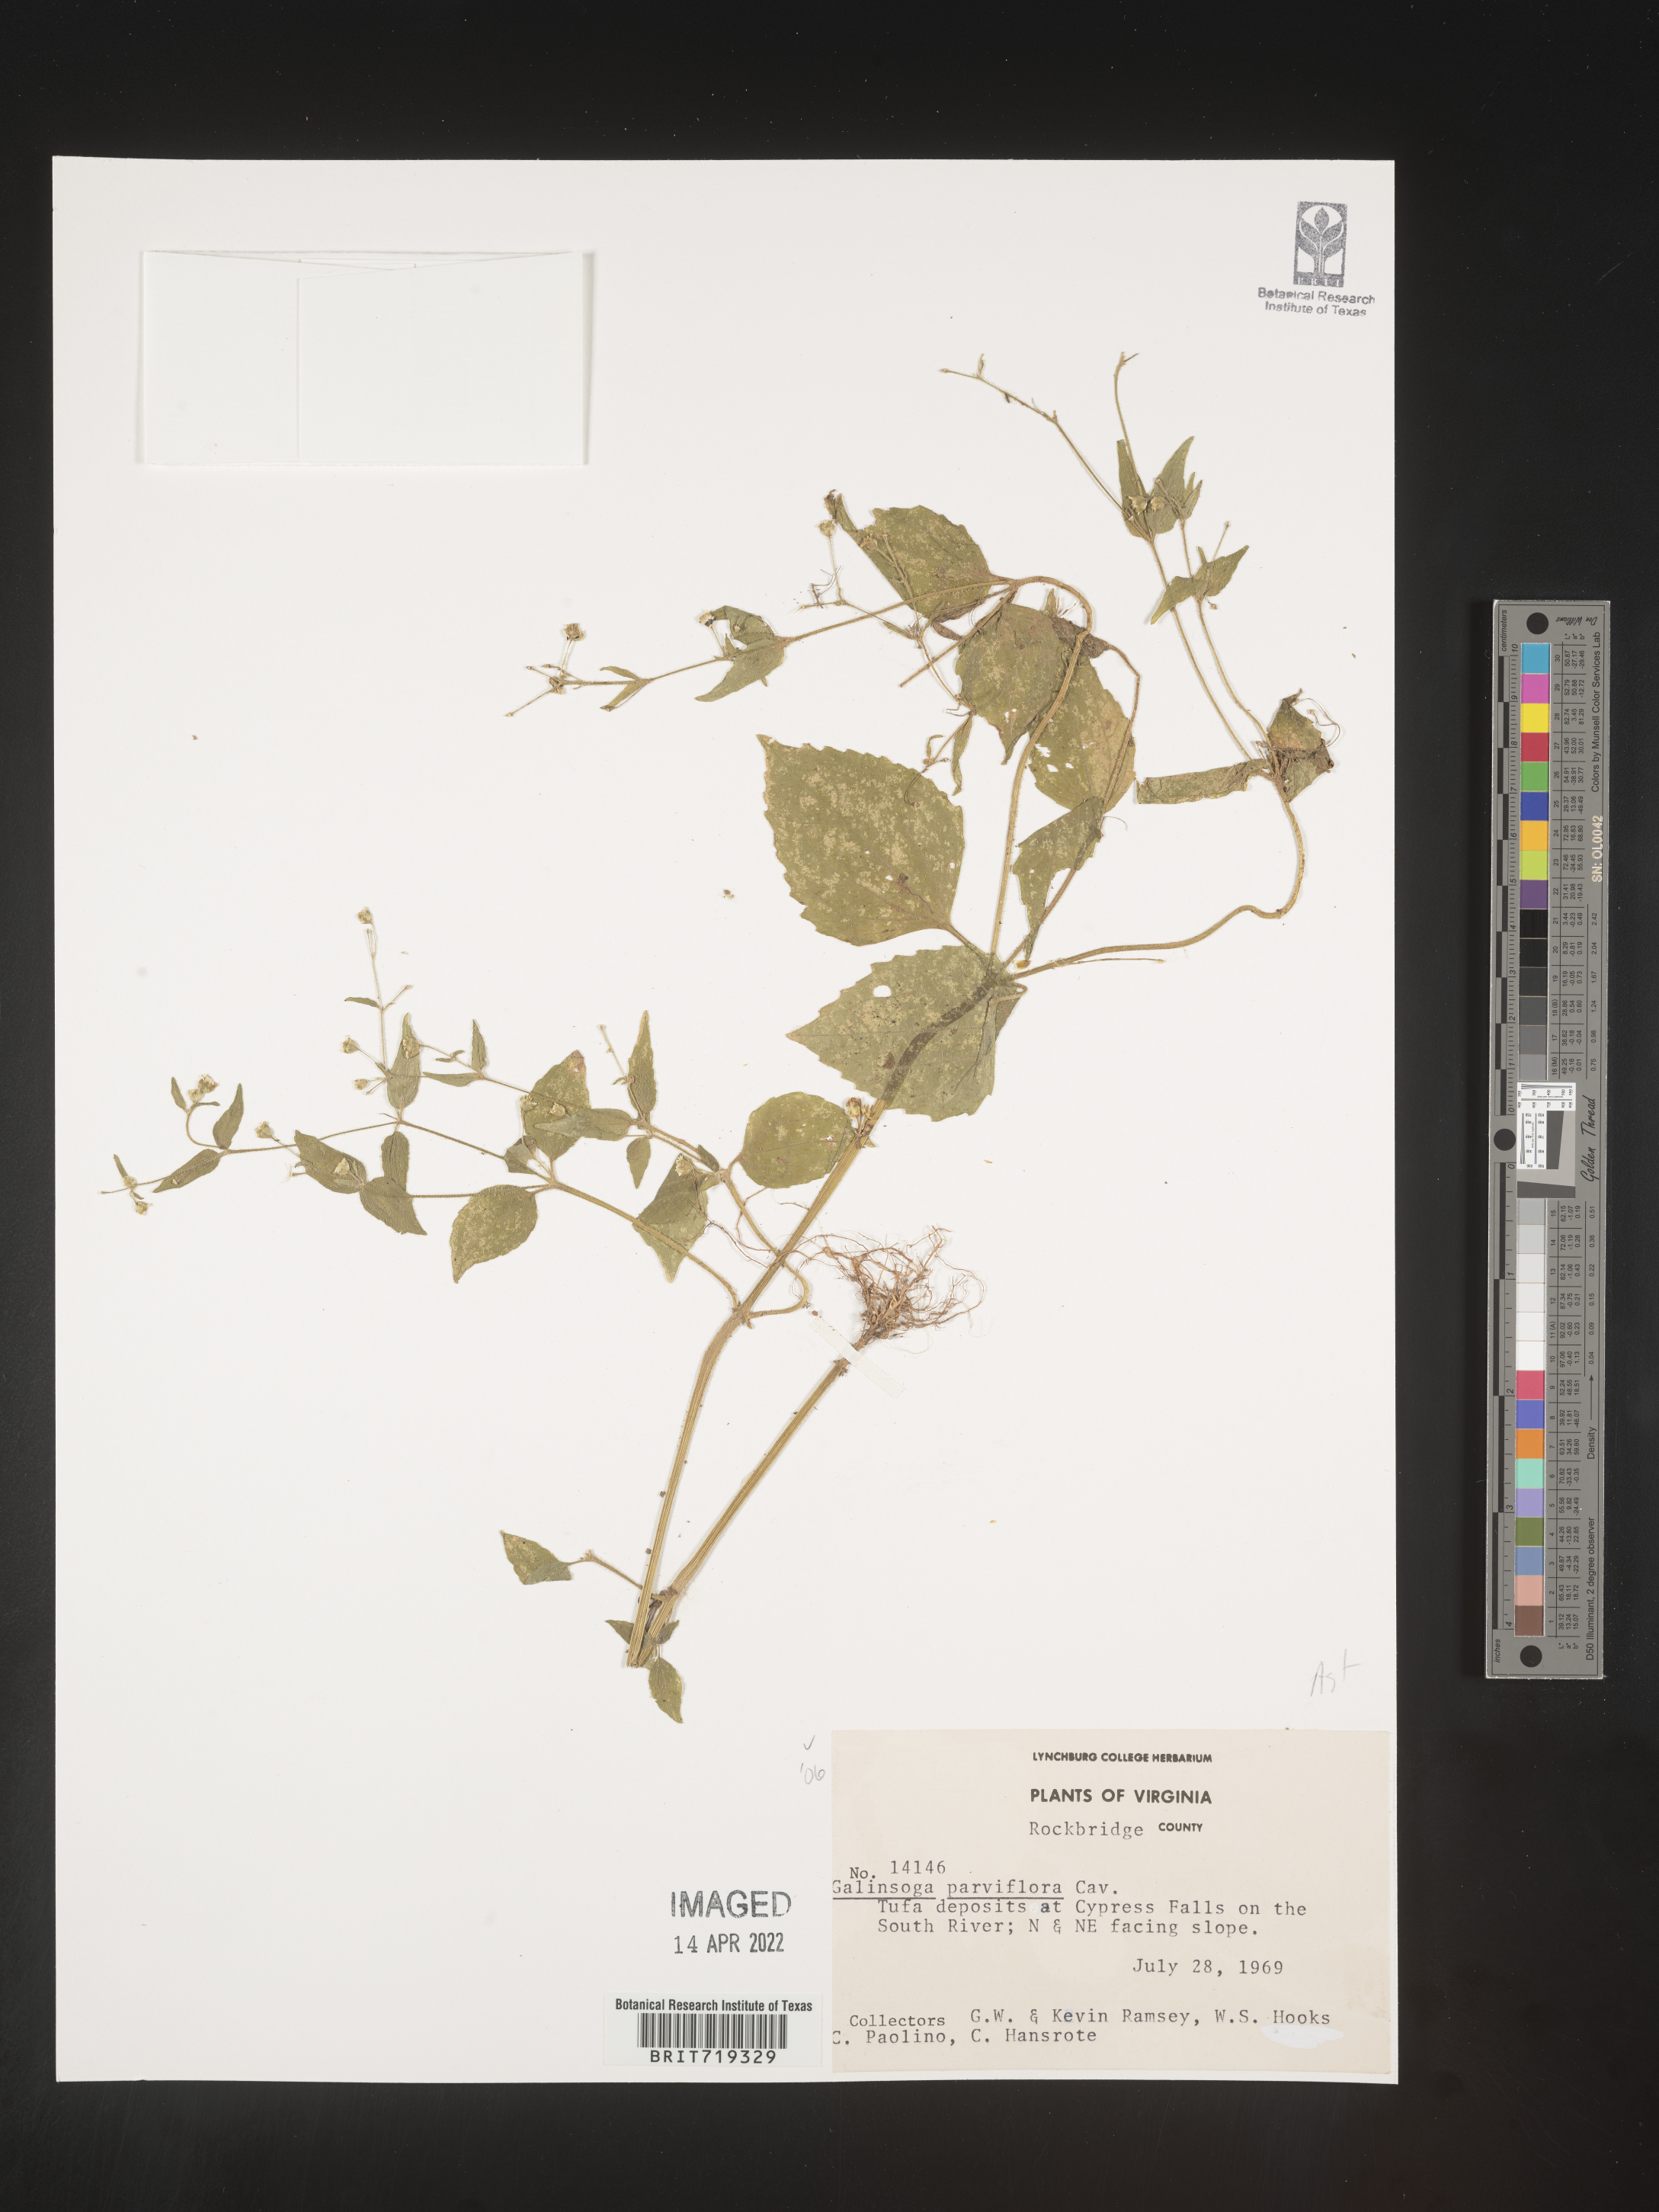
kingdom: Plantae
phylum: Tracheophyta
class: Magnoliopsida
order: Asterales
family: Asteraceae
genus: Galinsoga
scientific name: Galinsoga parviflora
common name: Gallant soldier
